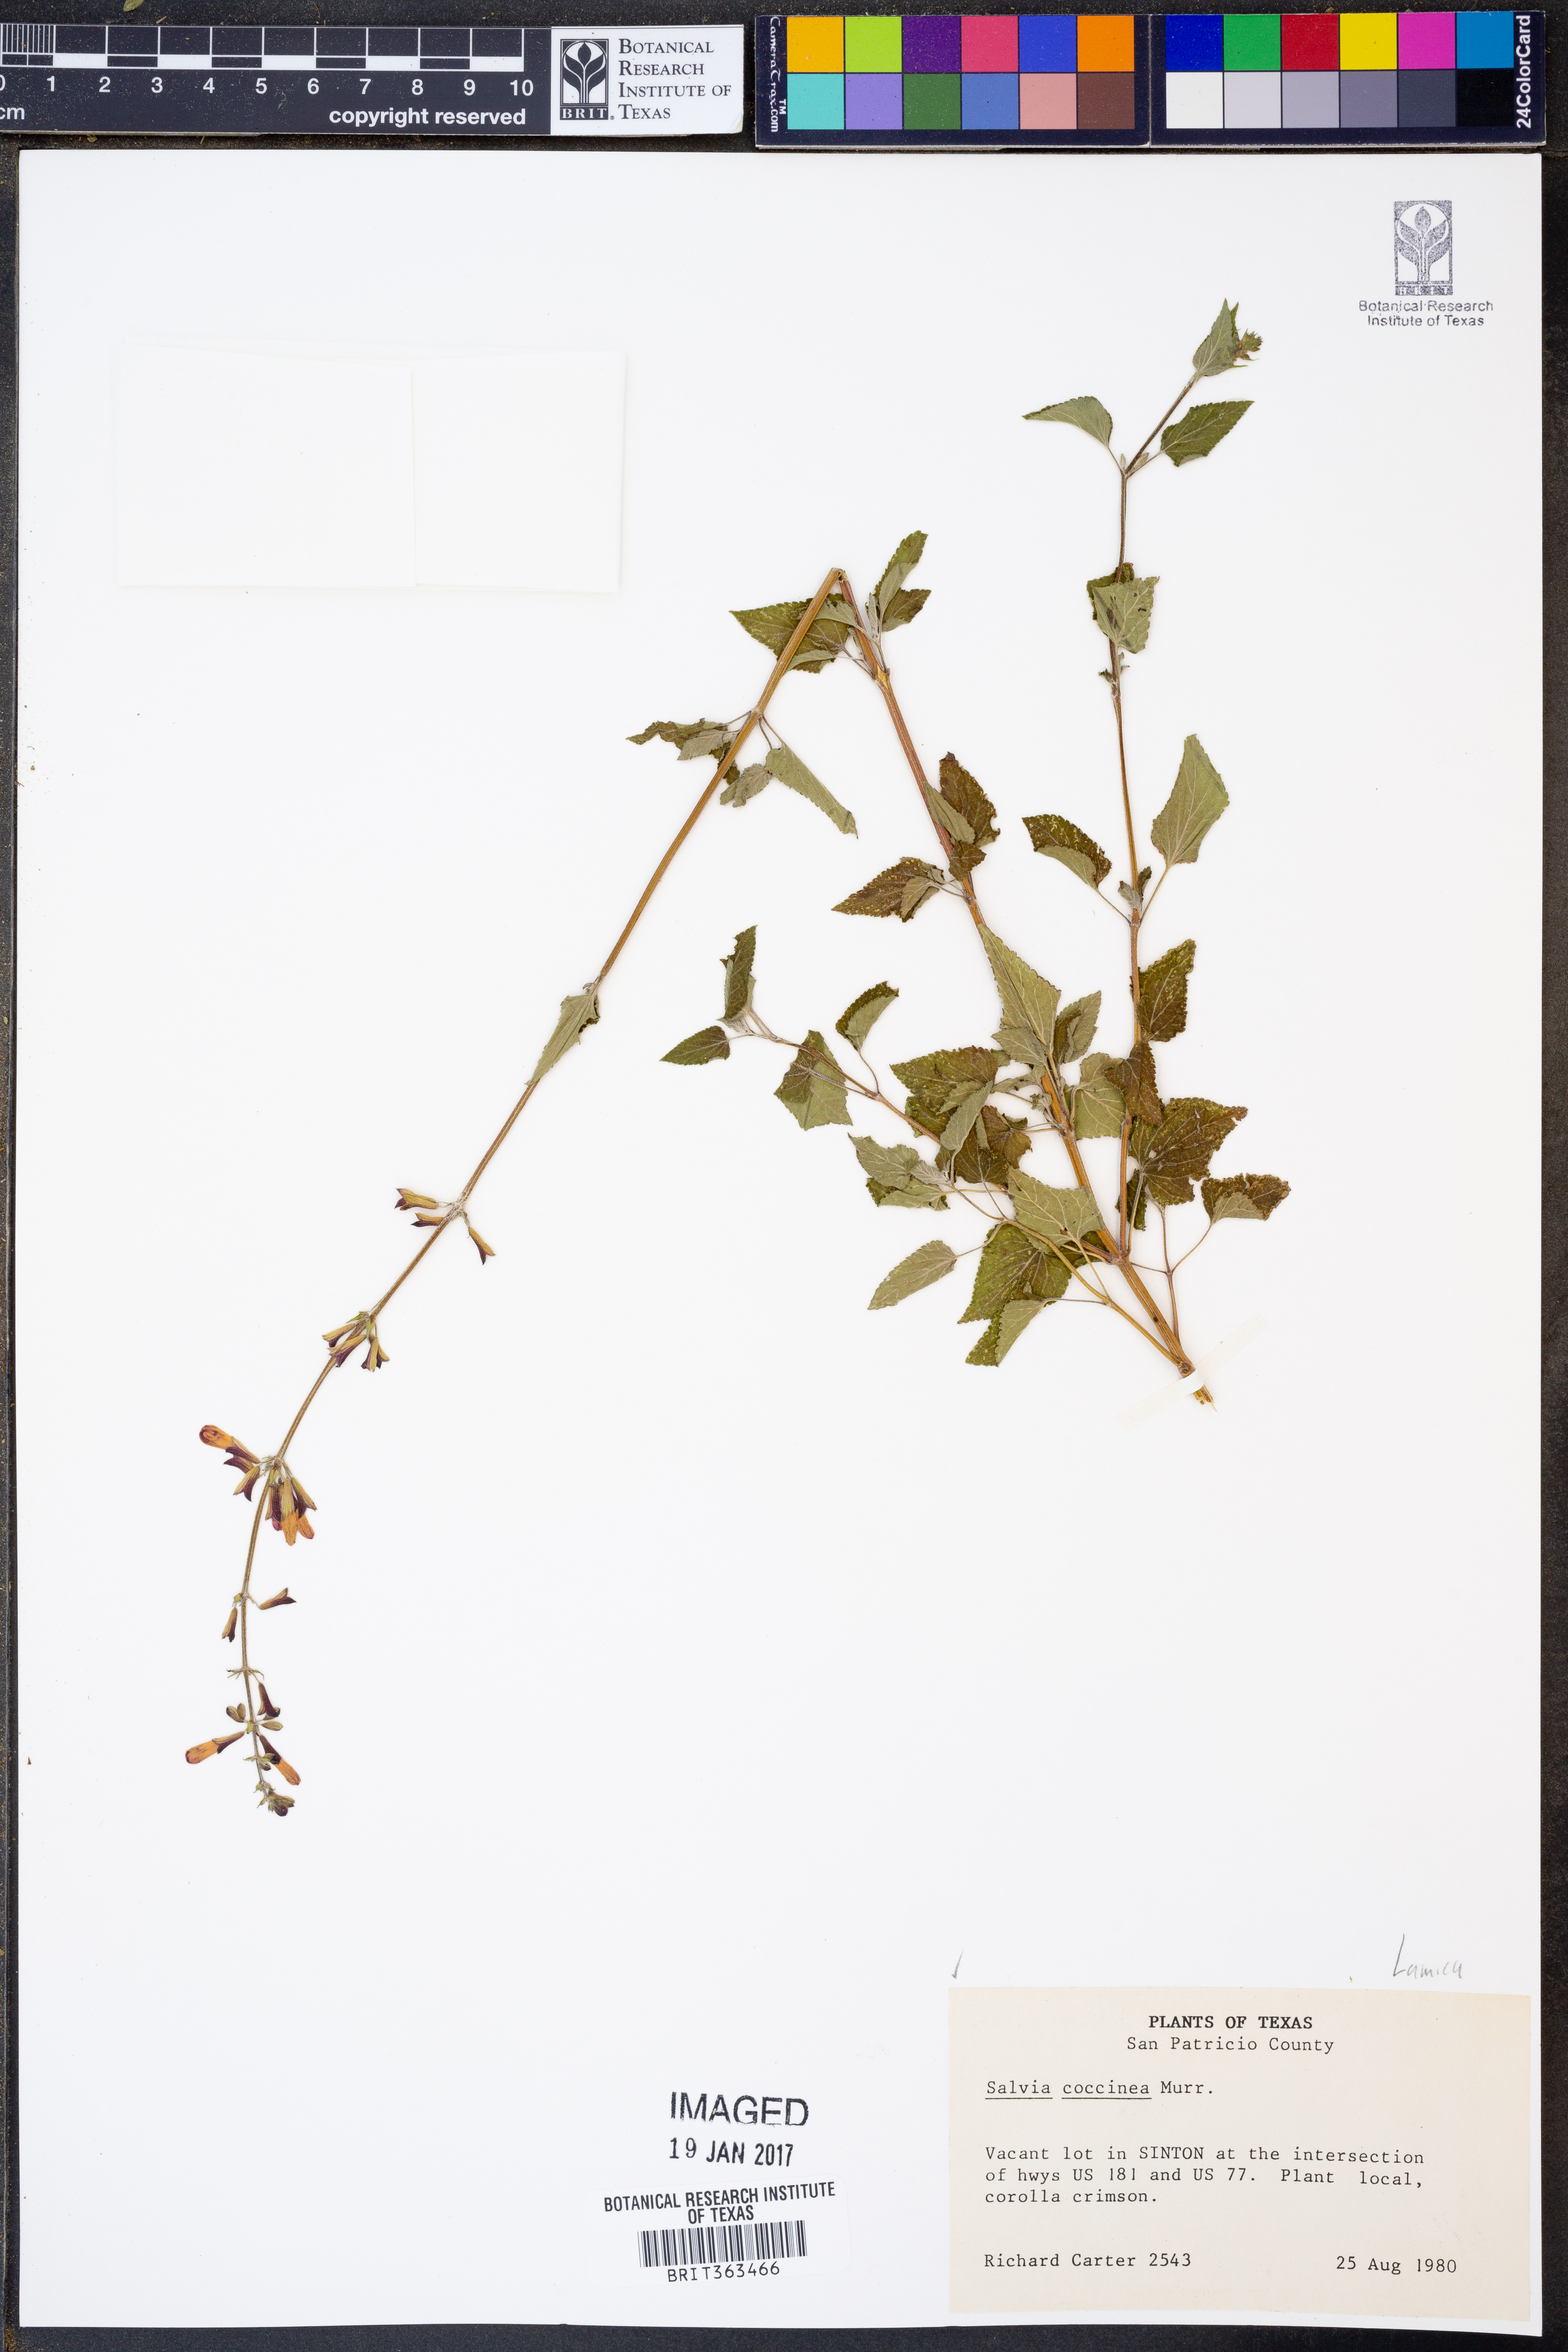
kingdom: Plantae
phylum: Tracheophyta
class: Magnoliopsida
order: Lamiales
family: Lamiaceae
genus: Salvia
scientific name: Salvia coccinea
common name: Blood sage
